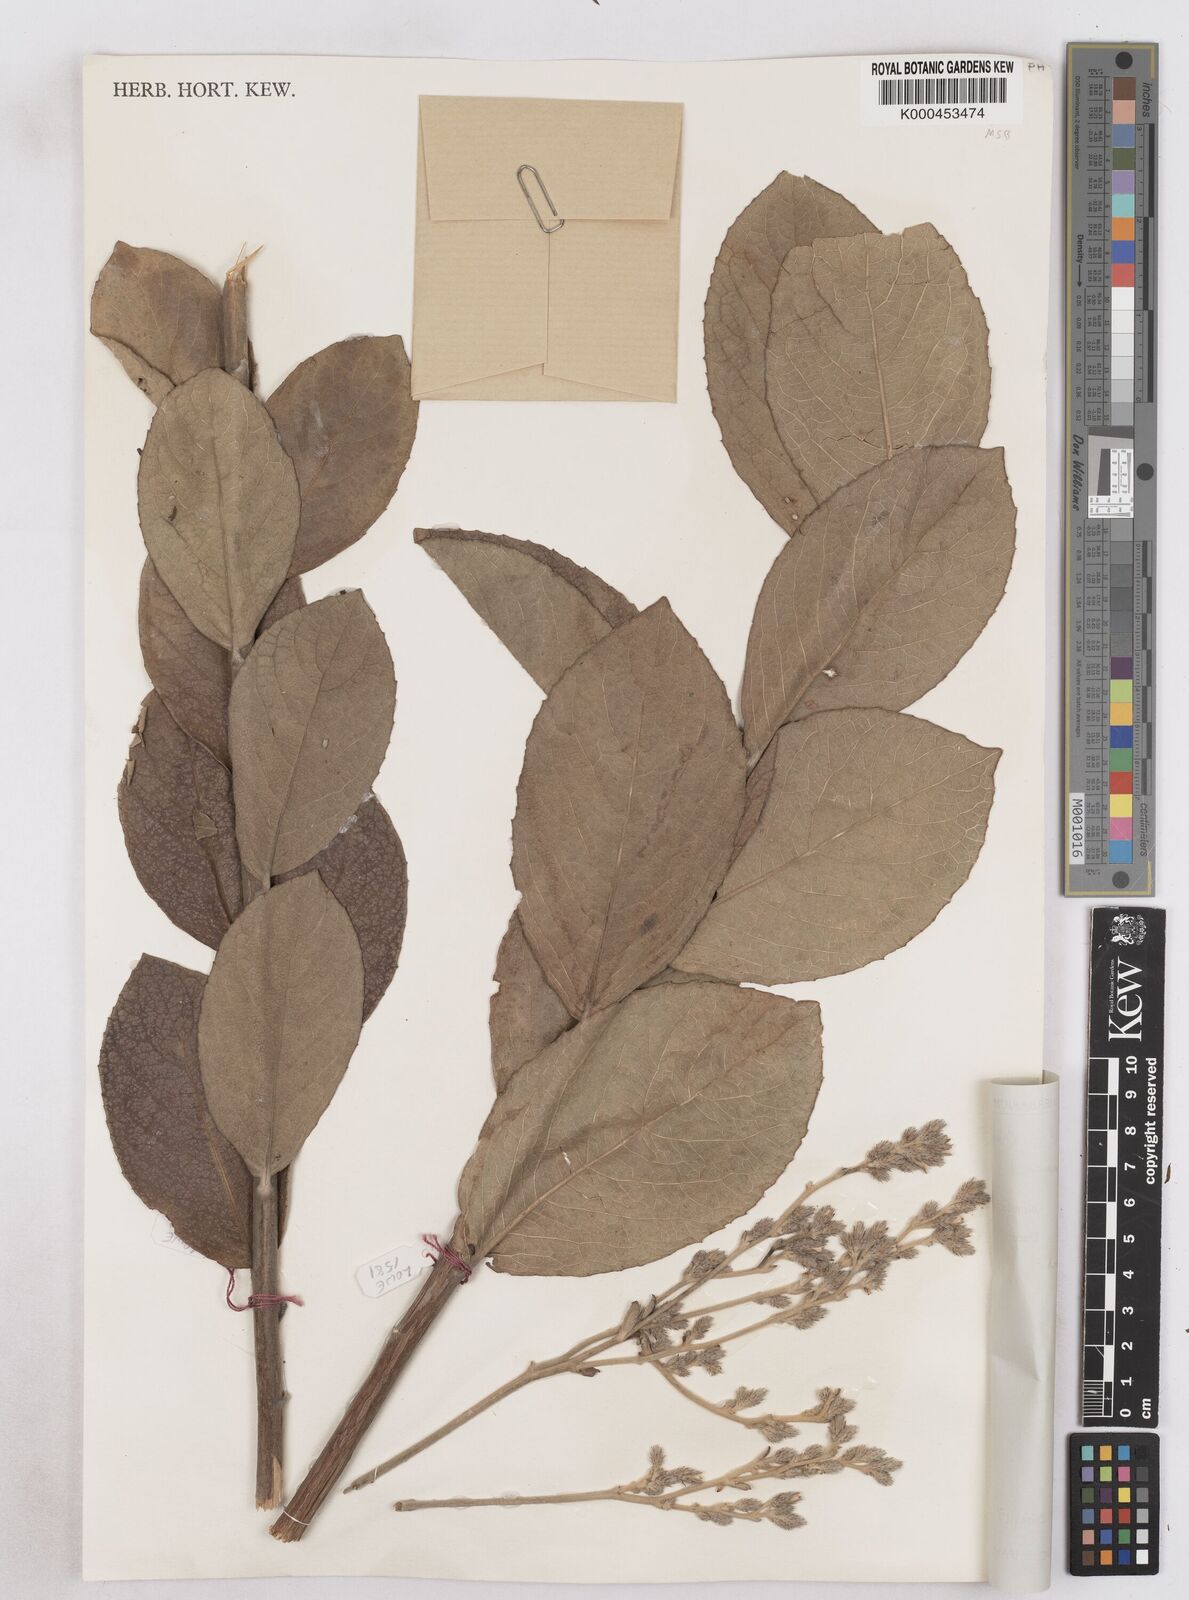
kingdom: Plantae
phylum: Tracheophyta
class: Magnoliopsida
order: Asterales
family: Asteraceae
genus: Vernoniastrum
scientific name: Vernoniastrum camporum
